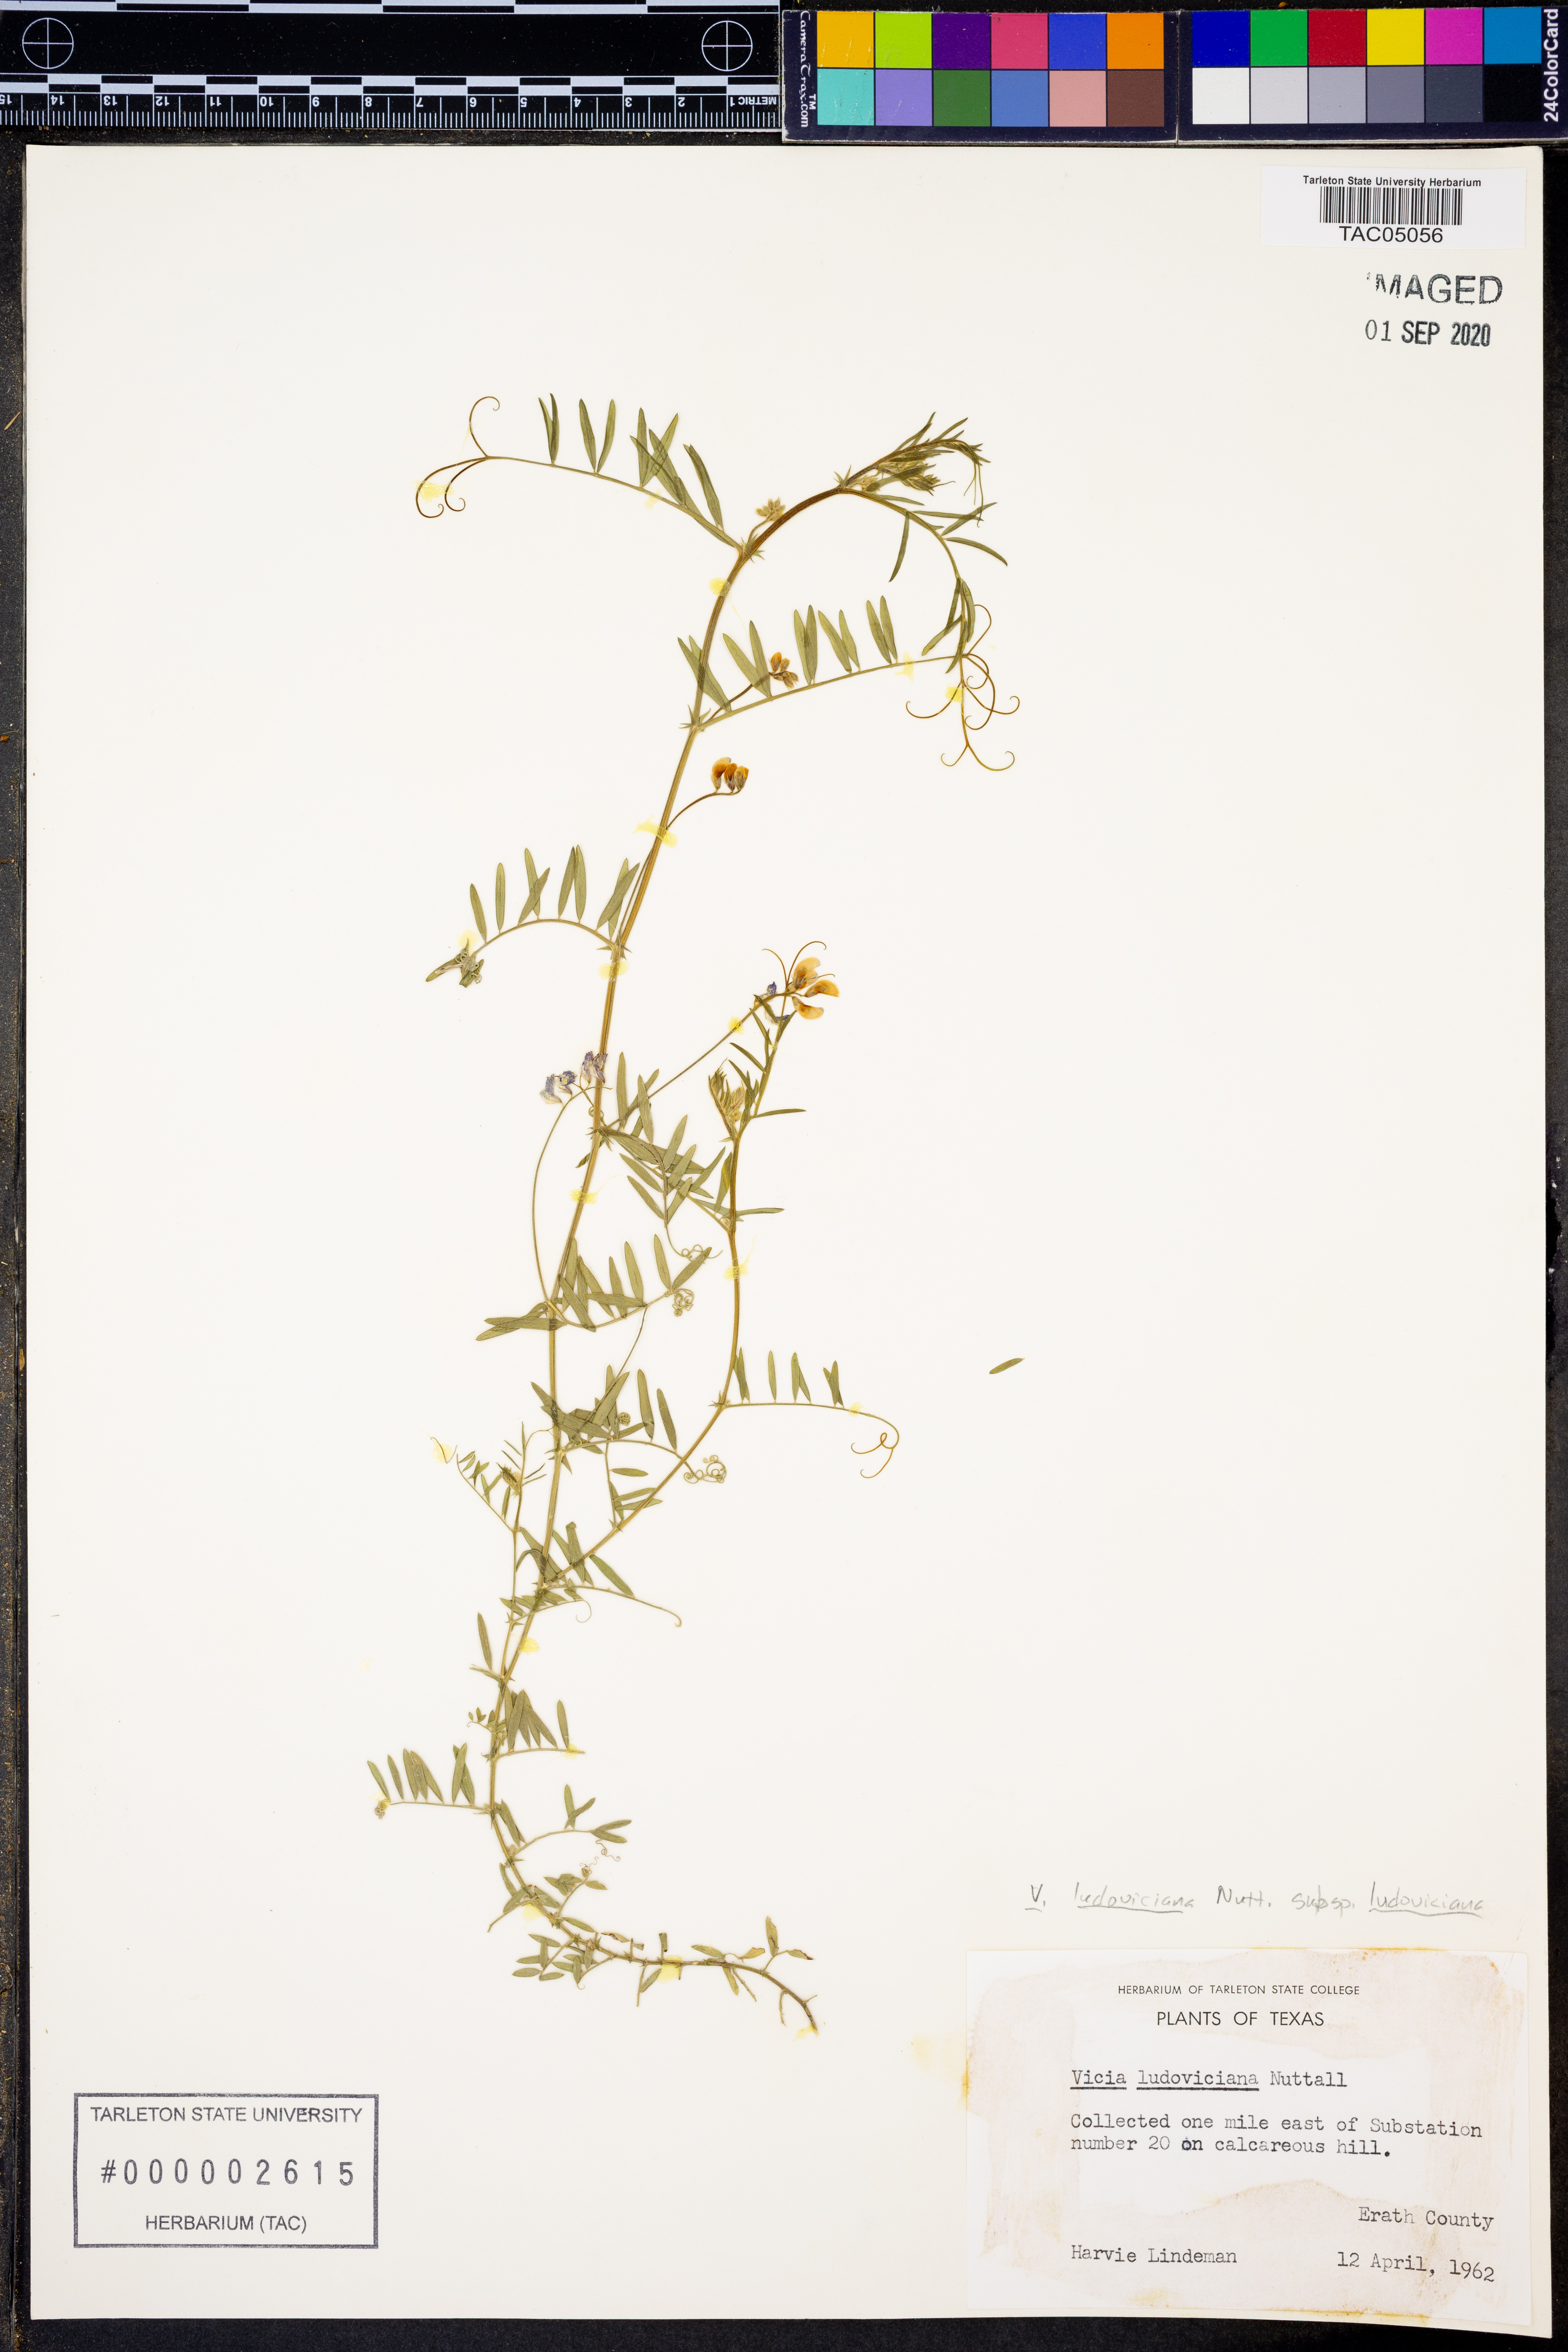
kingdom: Plantae
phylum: Tracheophyta
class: Magnoliopsida
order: Fabales
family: Fabaceae
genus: Vicia
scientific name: Vicia ludoviciana
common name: Louisiana vetch
